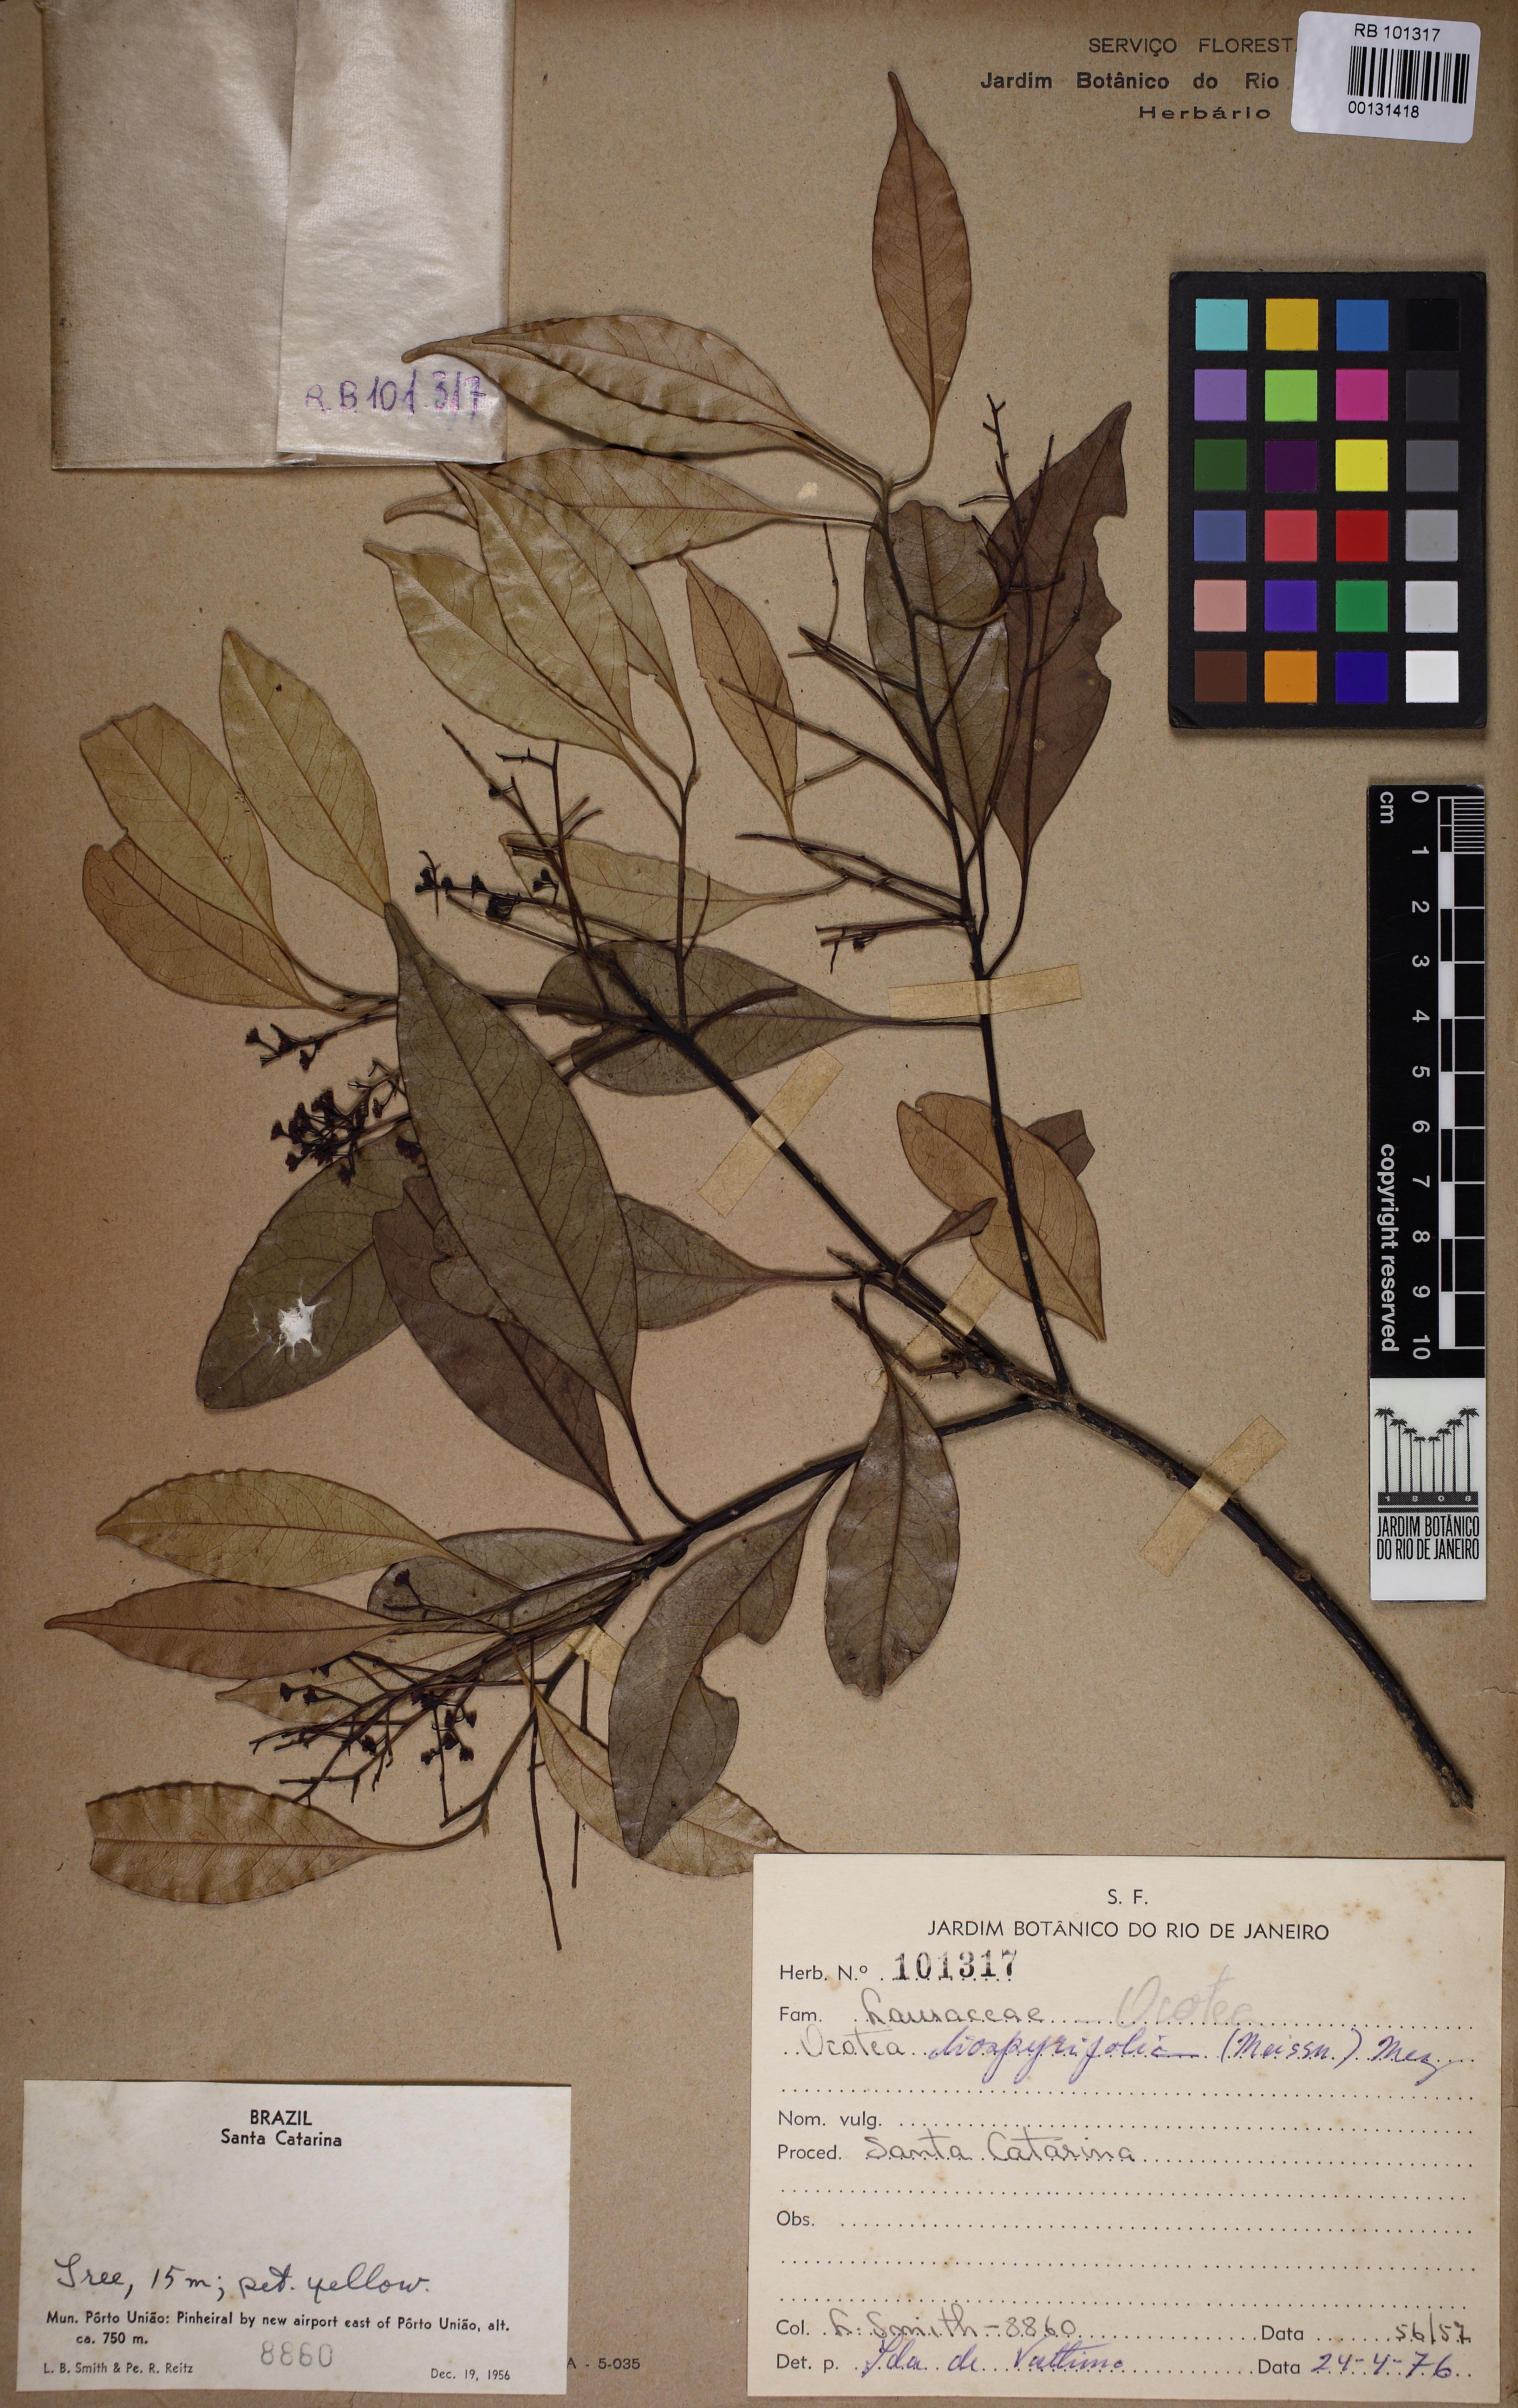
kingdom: Plantae
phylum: Tracheophyta
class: Magnoliopsida
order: Laurales
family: Lauraceae
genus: Ocotea
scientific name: Ocotea diospyrifolia
